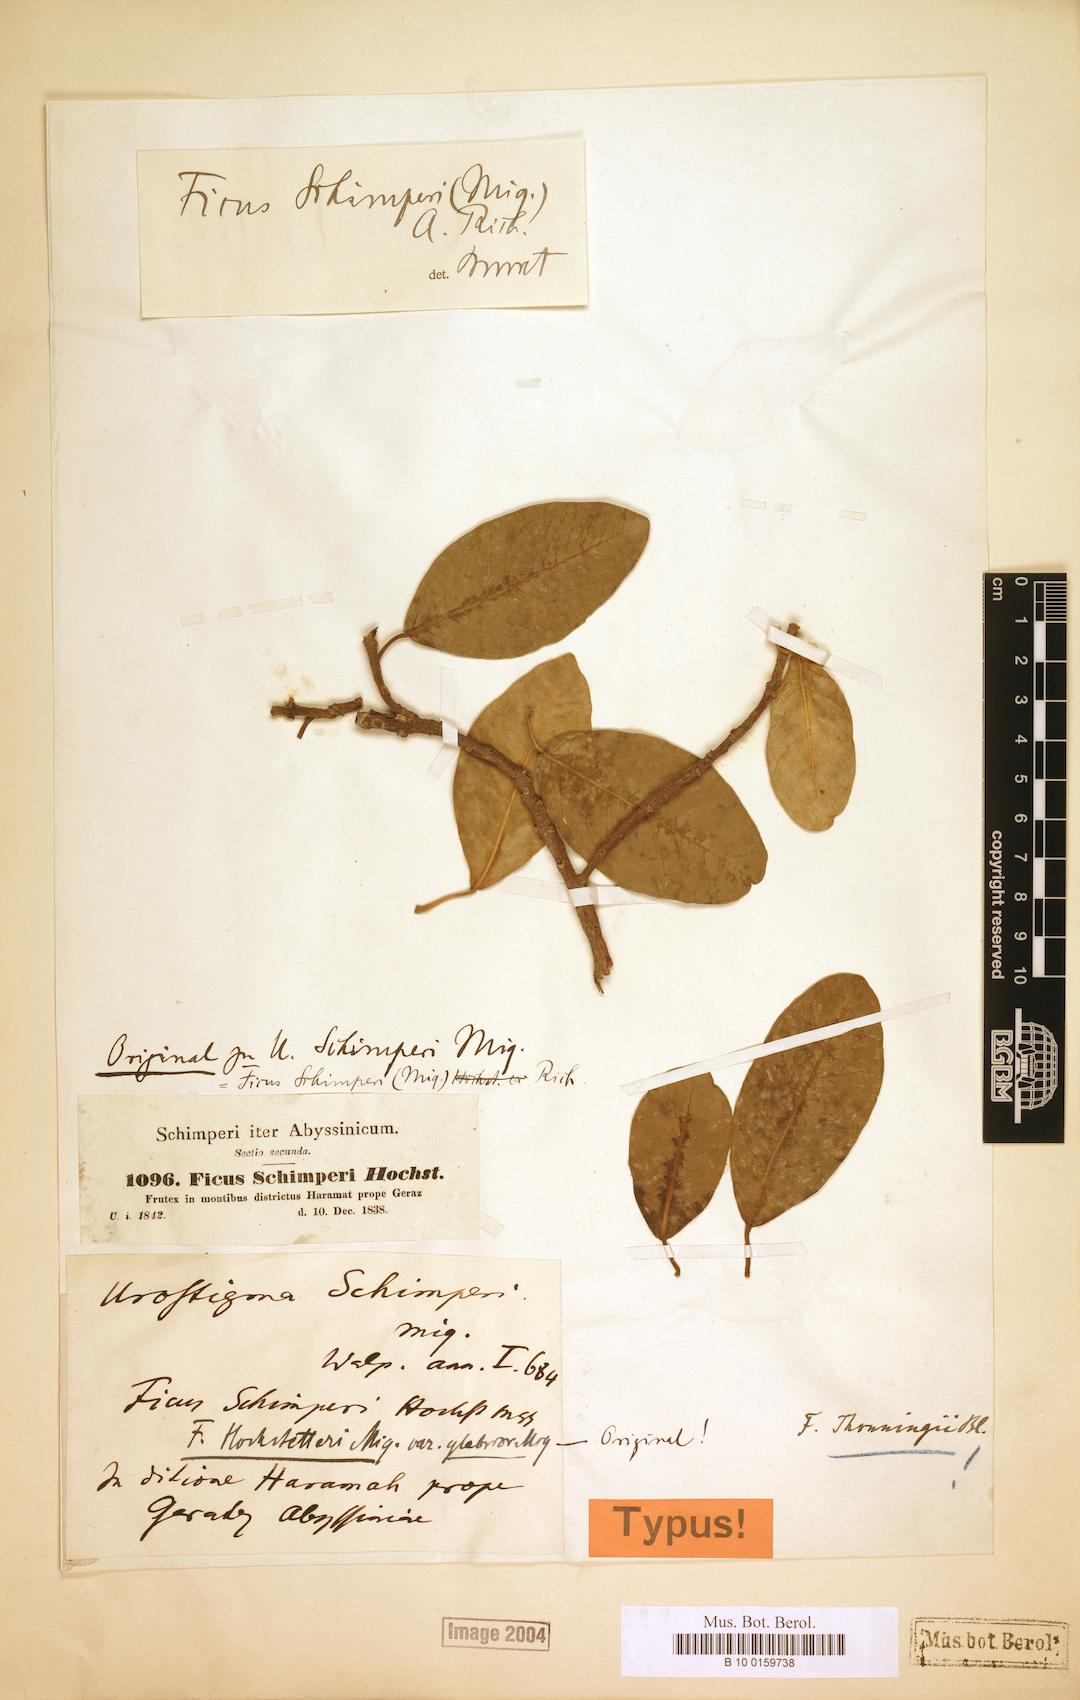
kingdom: Plantae
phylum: Tracheophyta
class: Magnoliopsida
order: Rosales
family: Moraceae
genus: Ficus
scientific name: Ficus thonningii
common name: Fig
